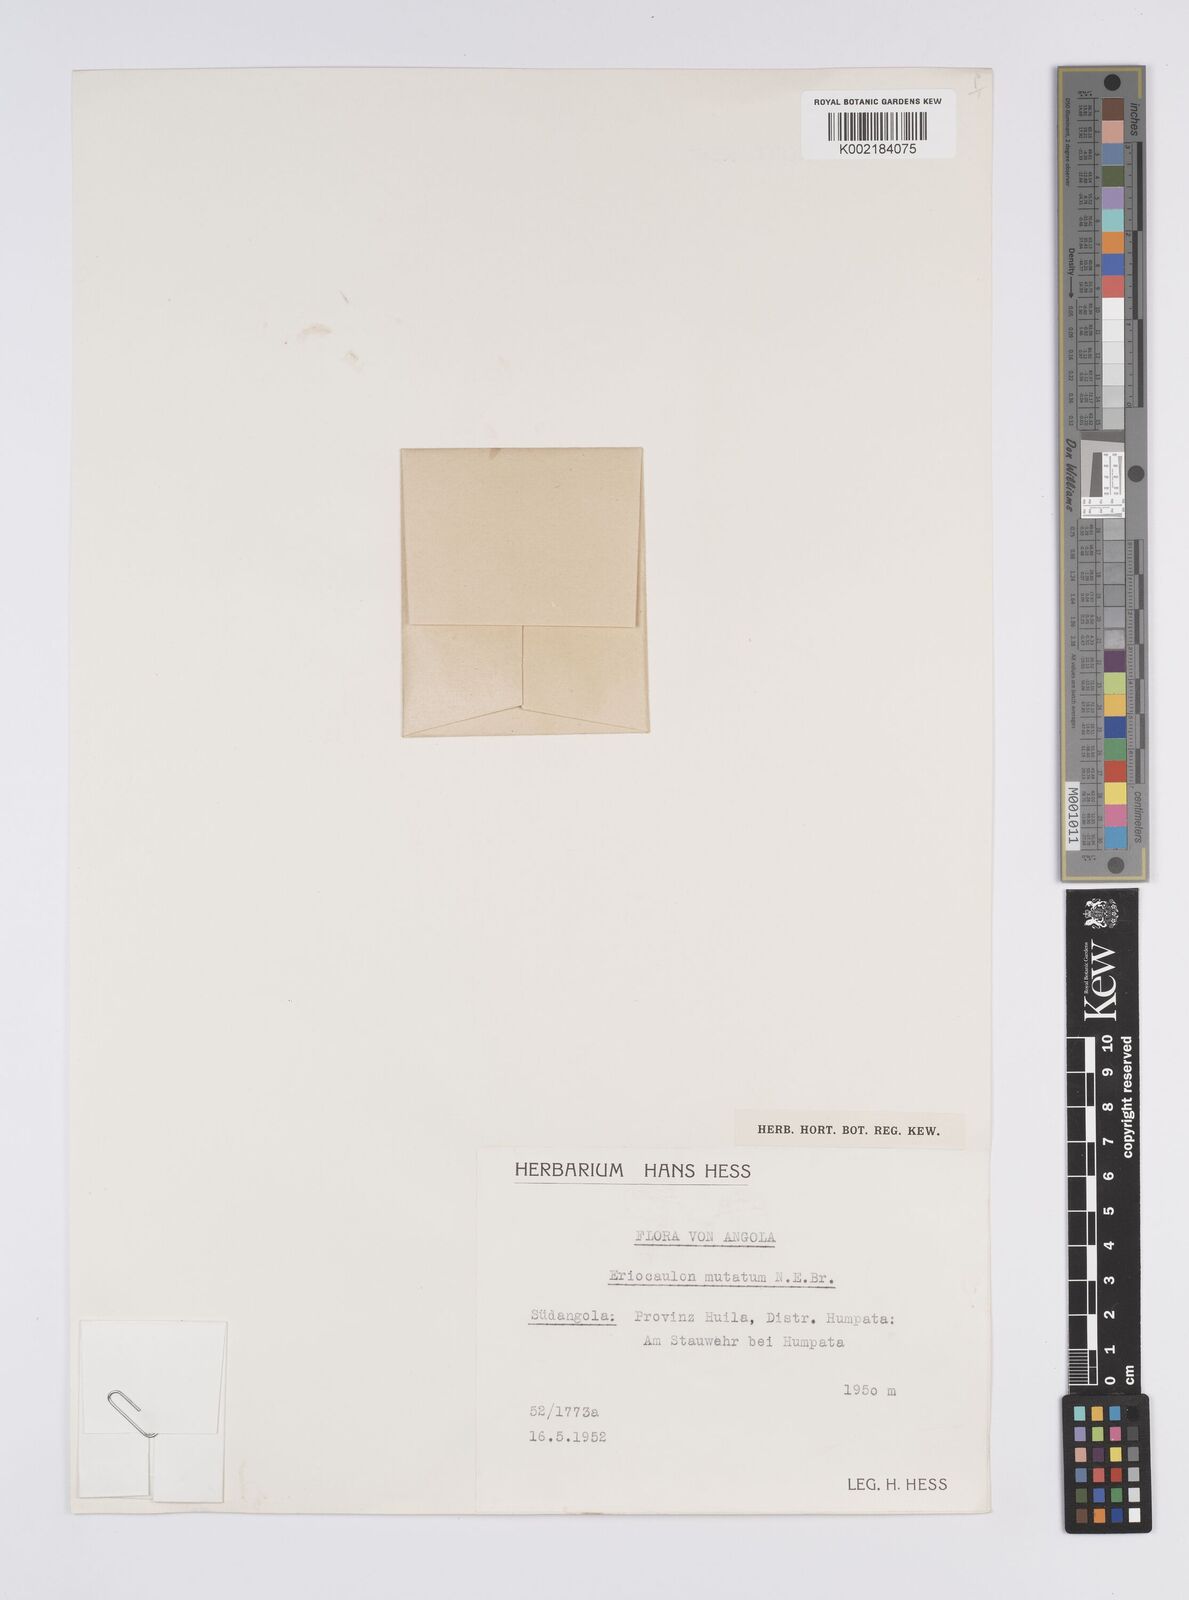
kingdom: Plantae
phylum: Tracheophyta
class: Liliopsida
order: Poales
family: Eriocaulaceae
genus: Eriocaulon
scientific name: Eriocaulon mutatum
